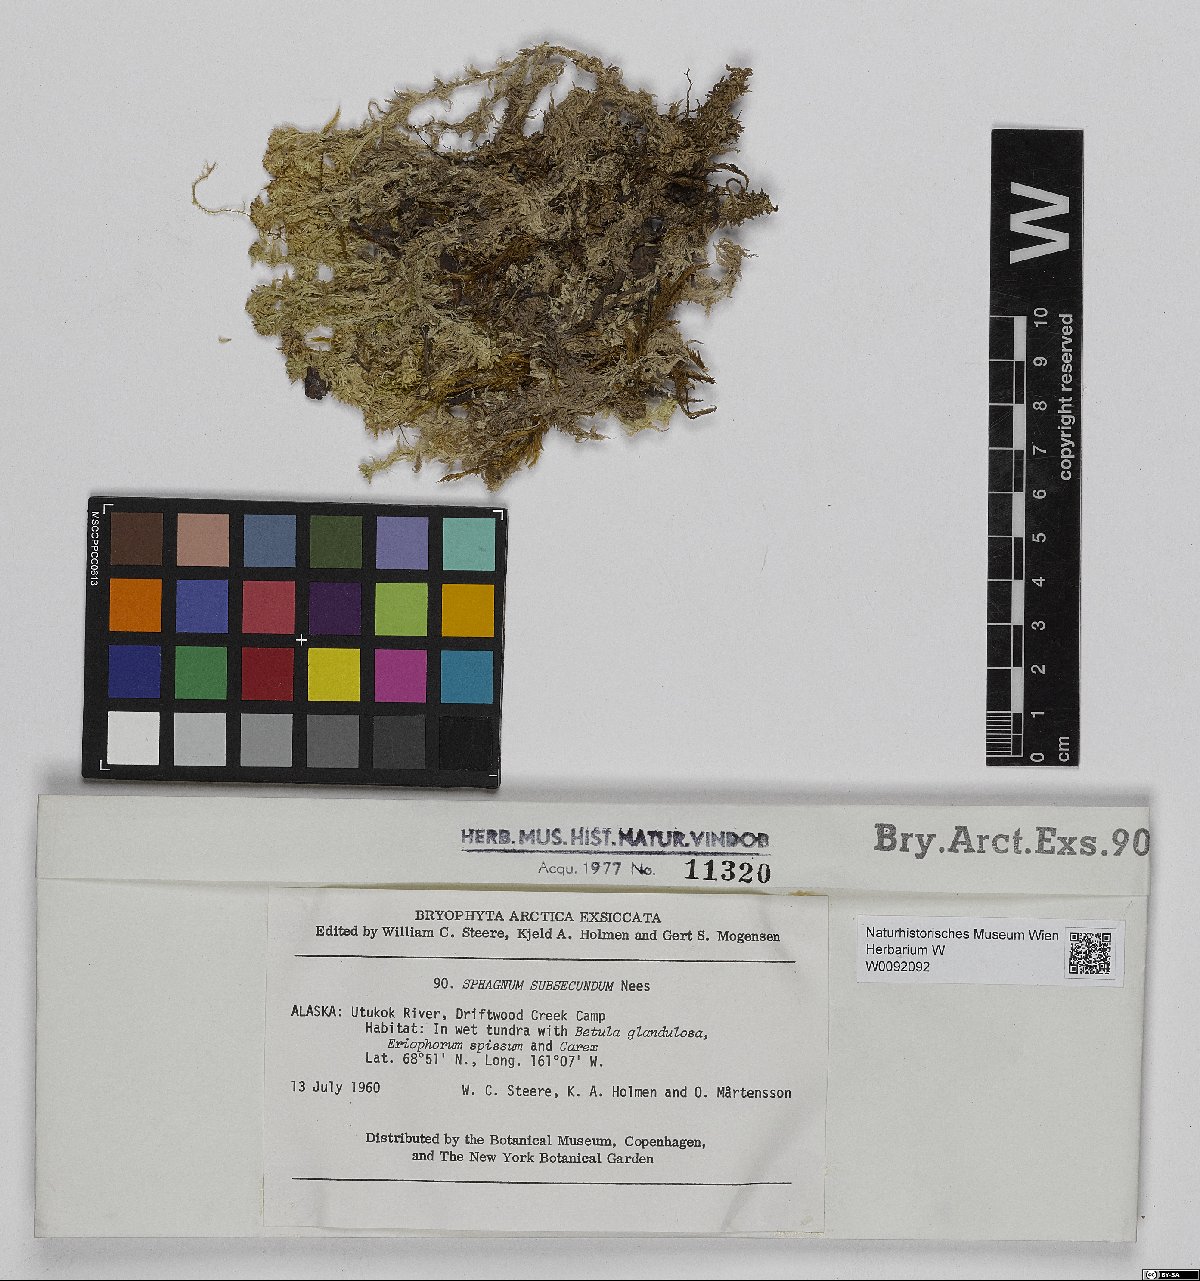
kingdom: Plantae
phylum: Bryophyta
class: Sphagnopsida
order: Sphagnales
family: Sphagnaceae
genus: Sphagnum
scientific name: Sphagnum subsecundum
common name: Orange peat moss
